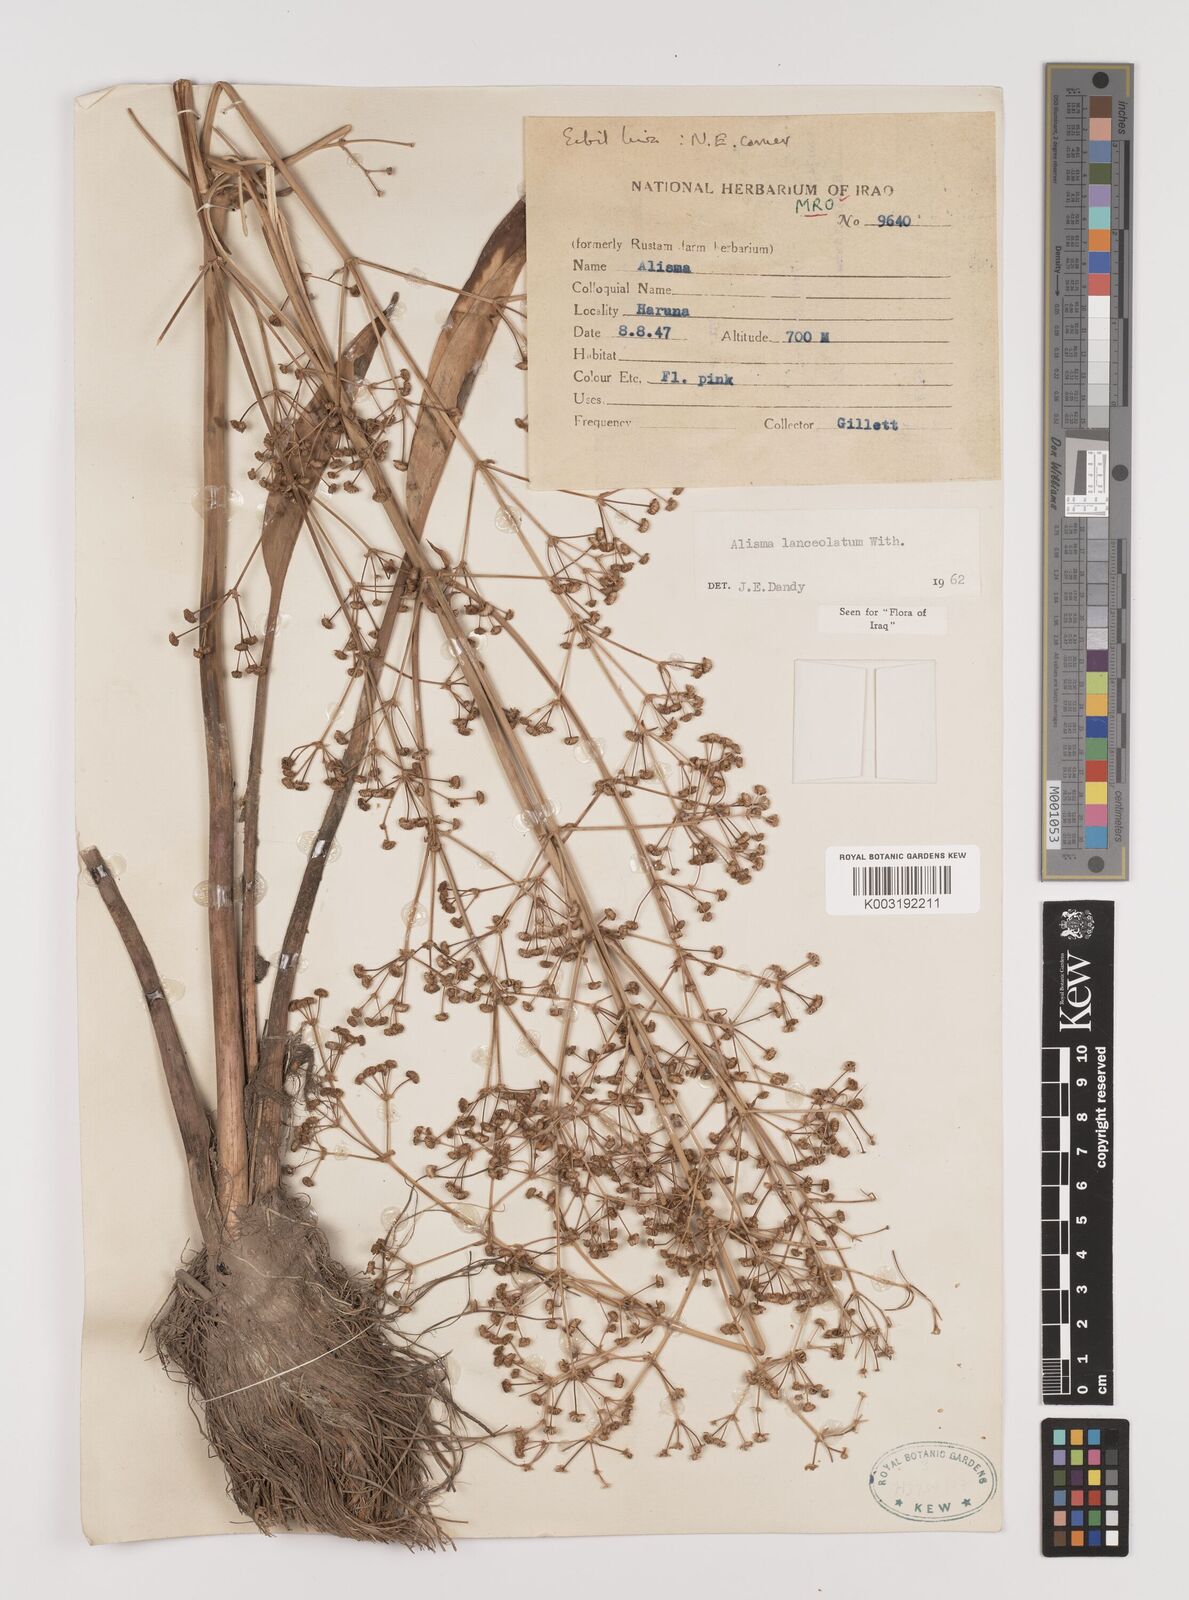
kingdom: Plantae
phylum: Tracheophyta
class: Liliopsida
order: Alismatales
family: Alismataceae
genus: Alisma
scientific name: Alisma lanceolatum
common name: Narrow-leaved water-plantain
